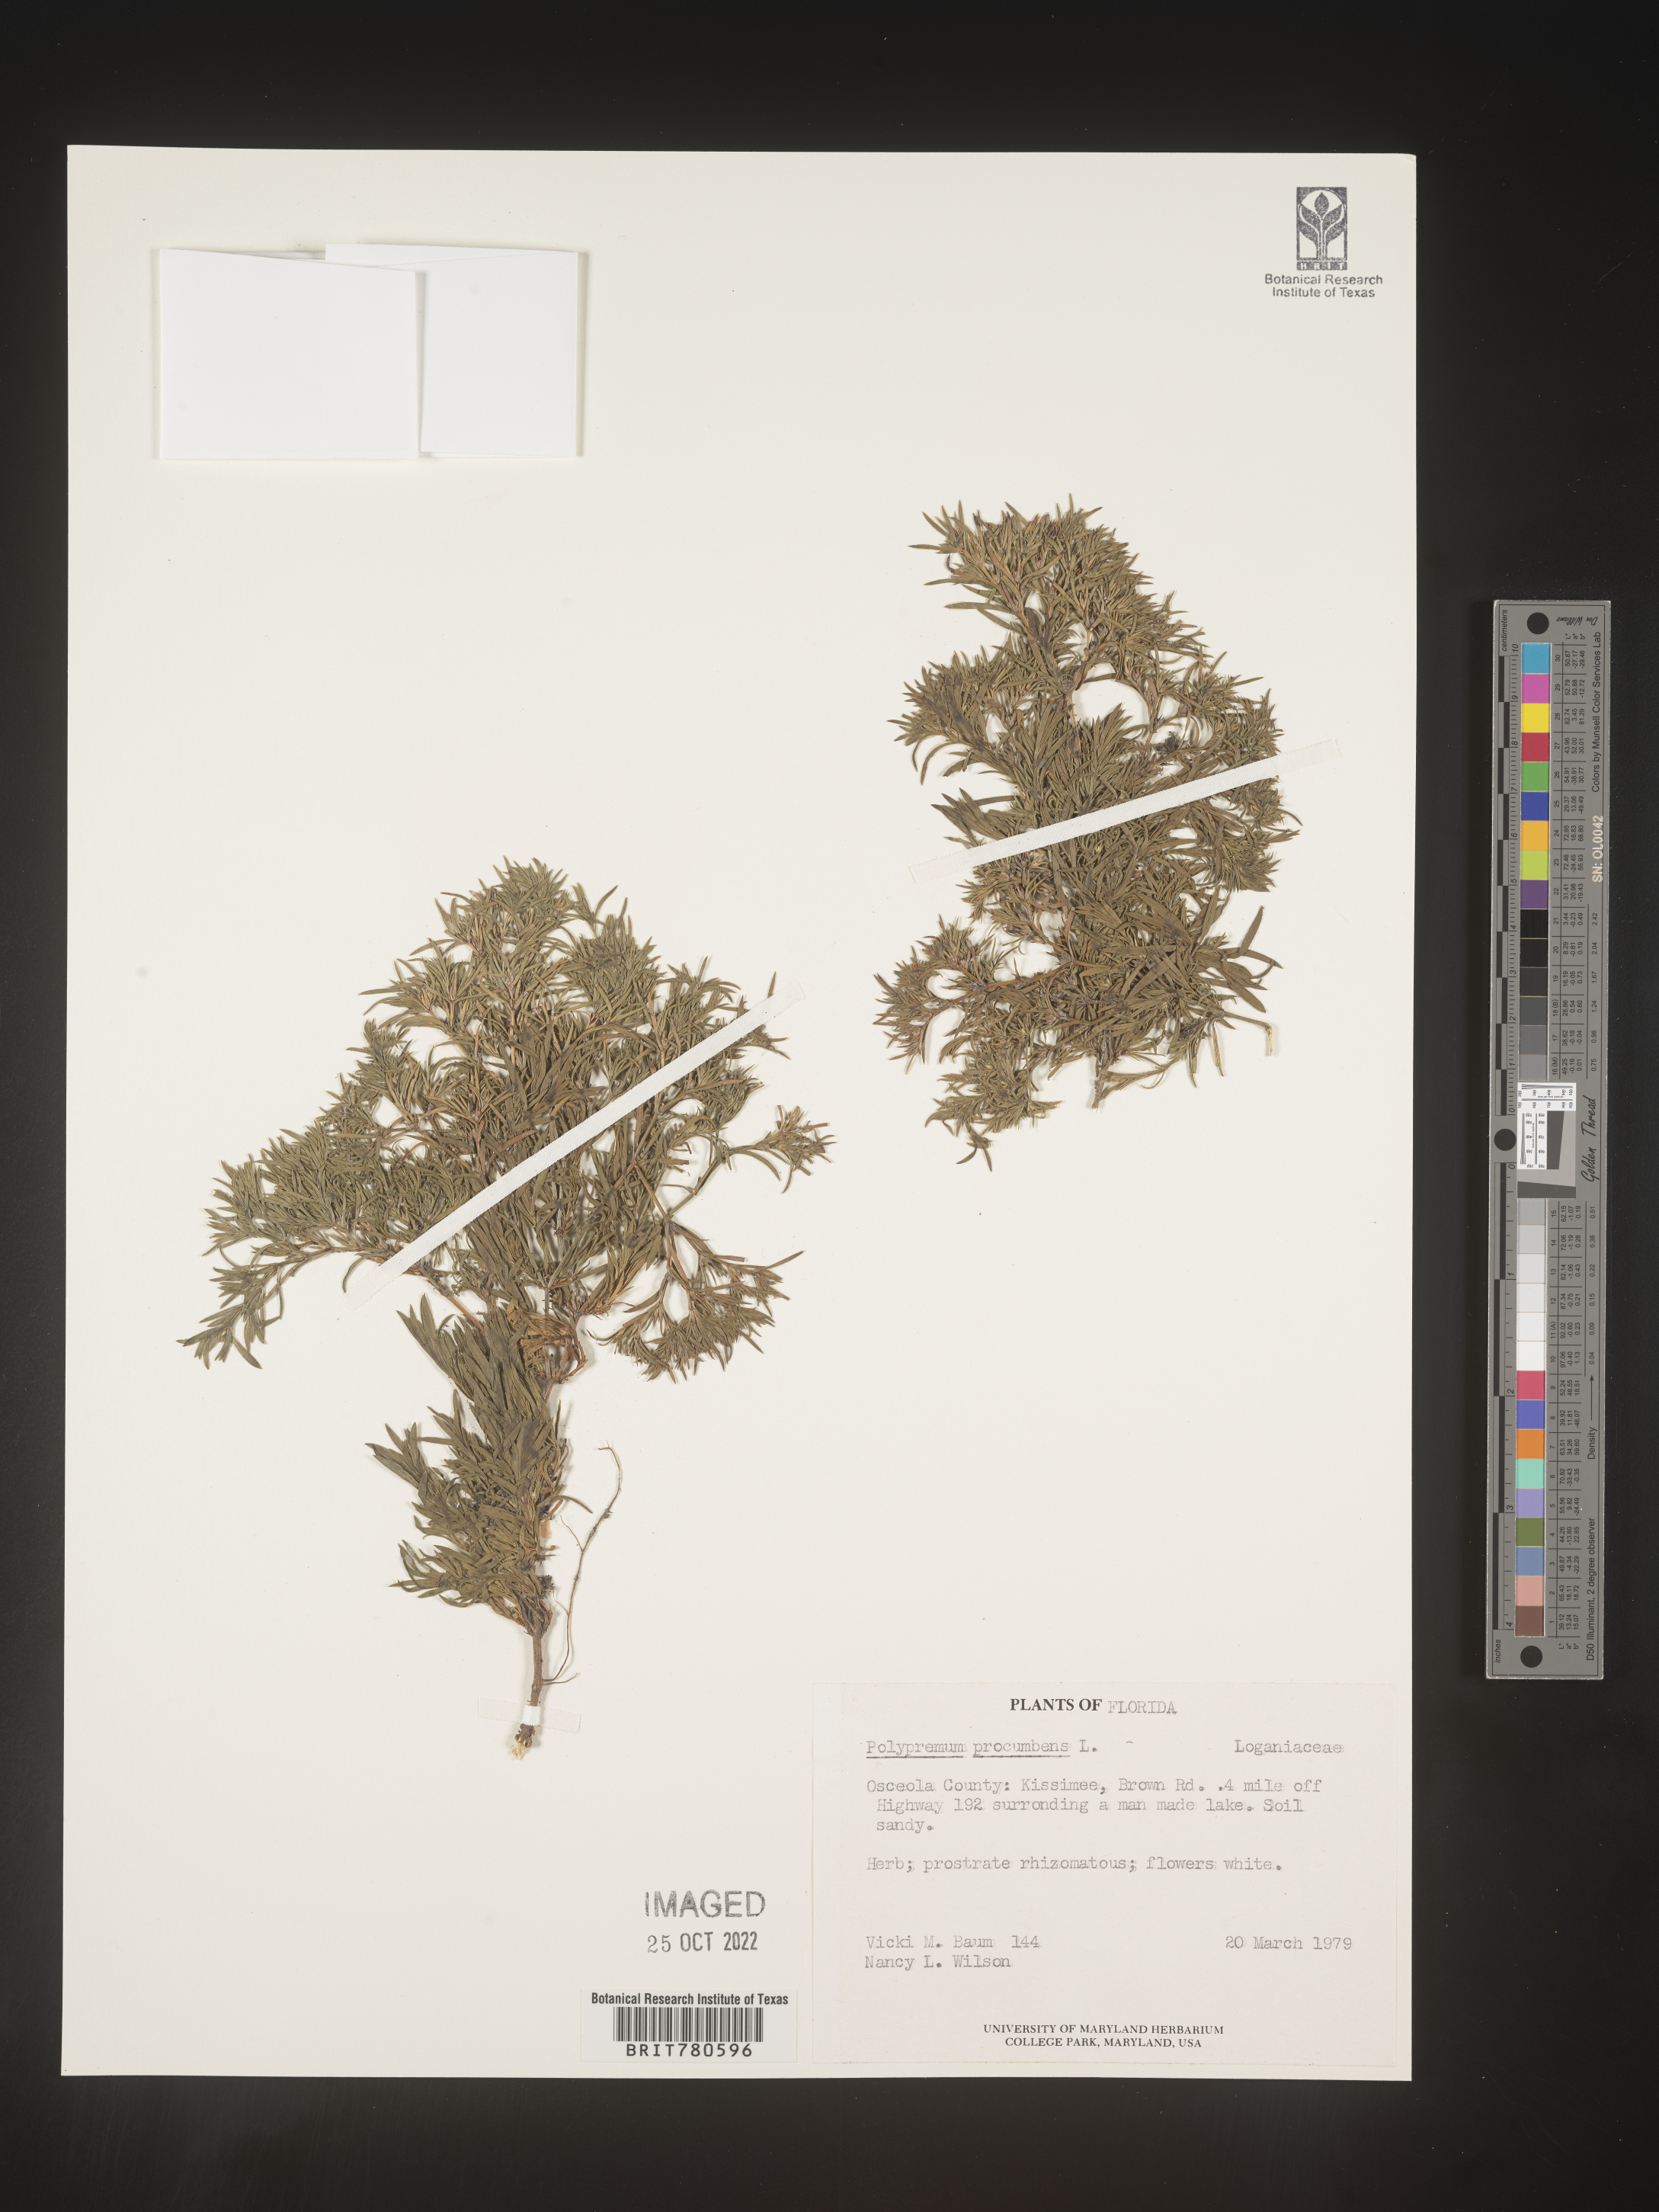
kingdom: Plantae
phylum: Tracheophyta
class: Magnoliopsida
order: Lamiales
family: Tetrachondraceae
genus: Polypremum
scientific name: Polypremum procumbens
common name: Juniper-leaf
